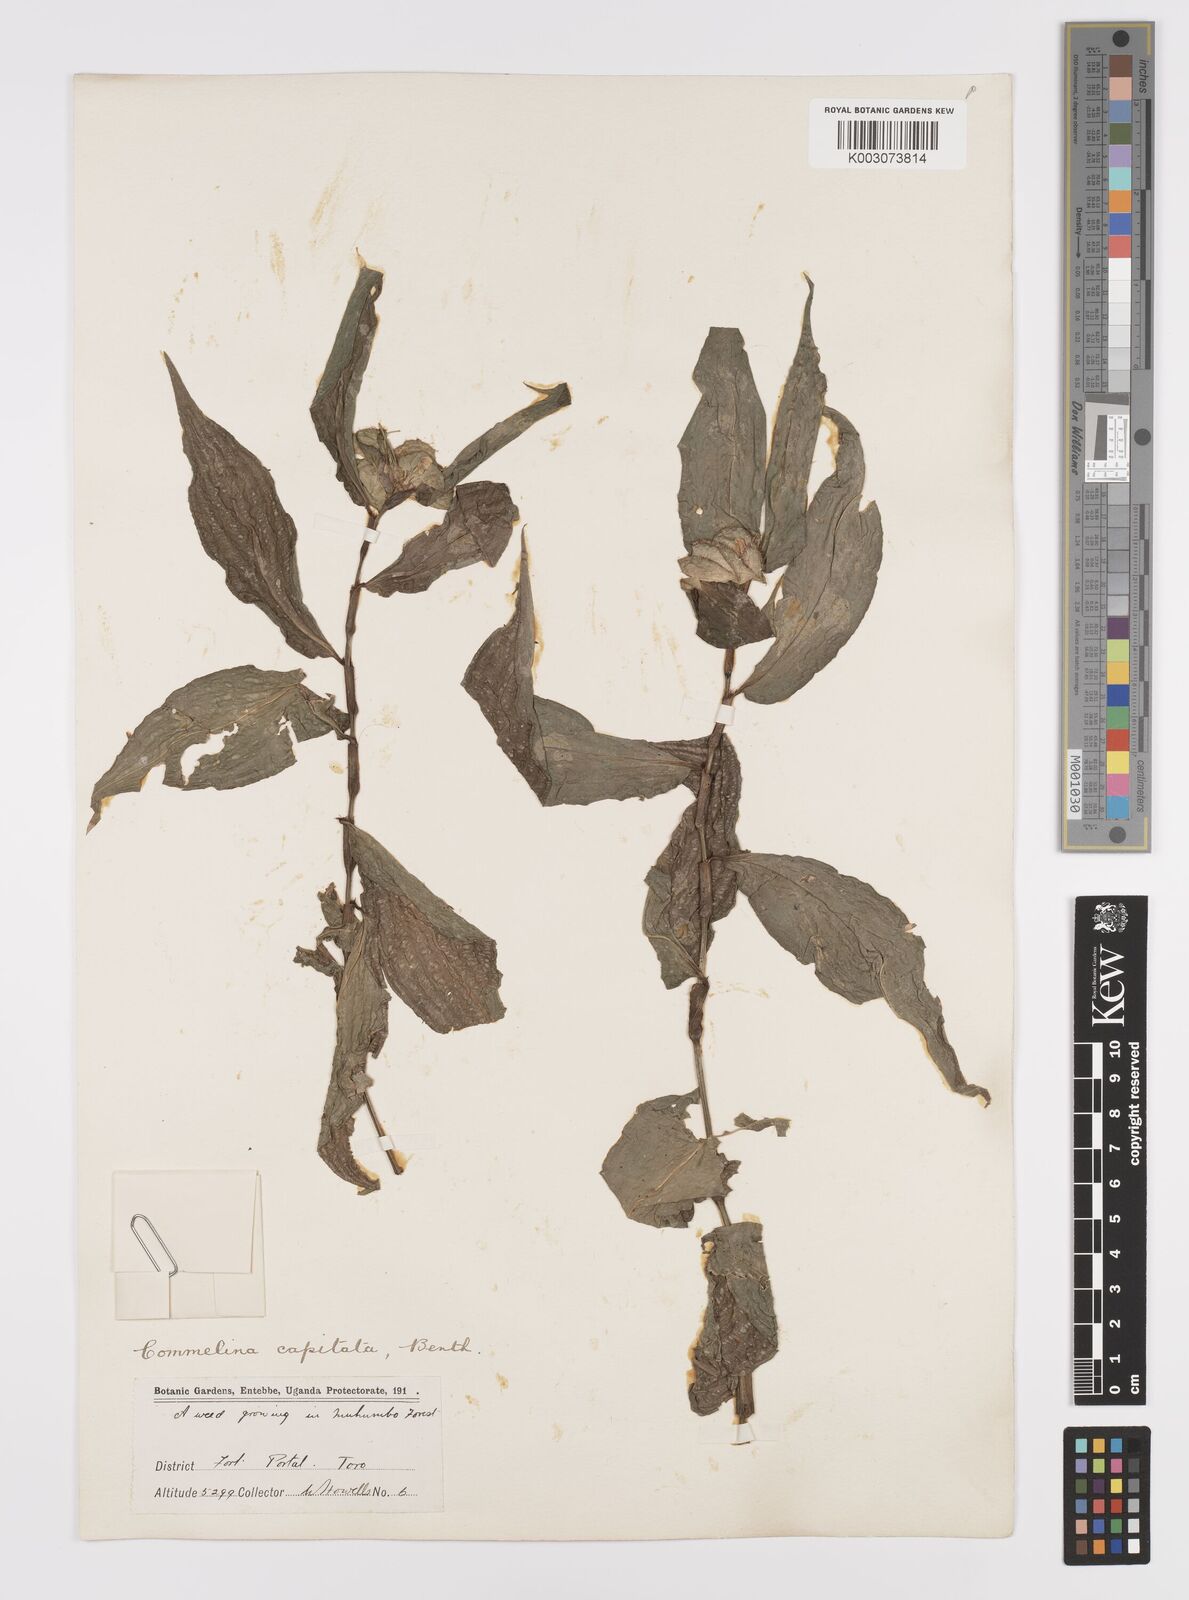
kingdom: Plantae
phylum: Tracheophyta
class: Liliopsida
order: Commelinales
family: Commelinaceae
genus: Commelina
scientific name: Commelina capitata
